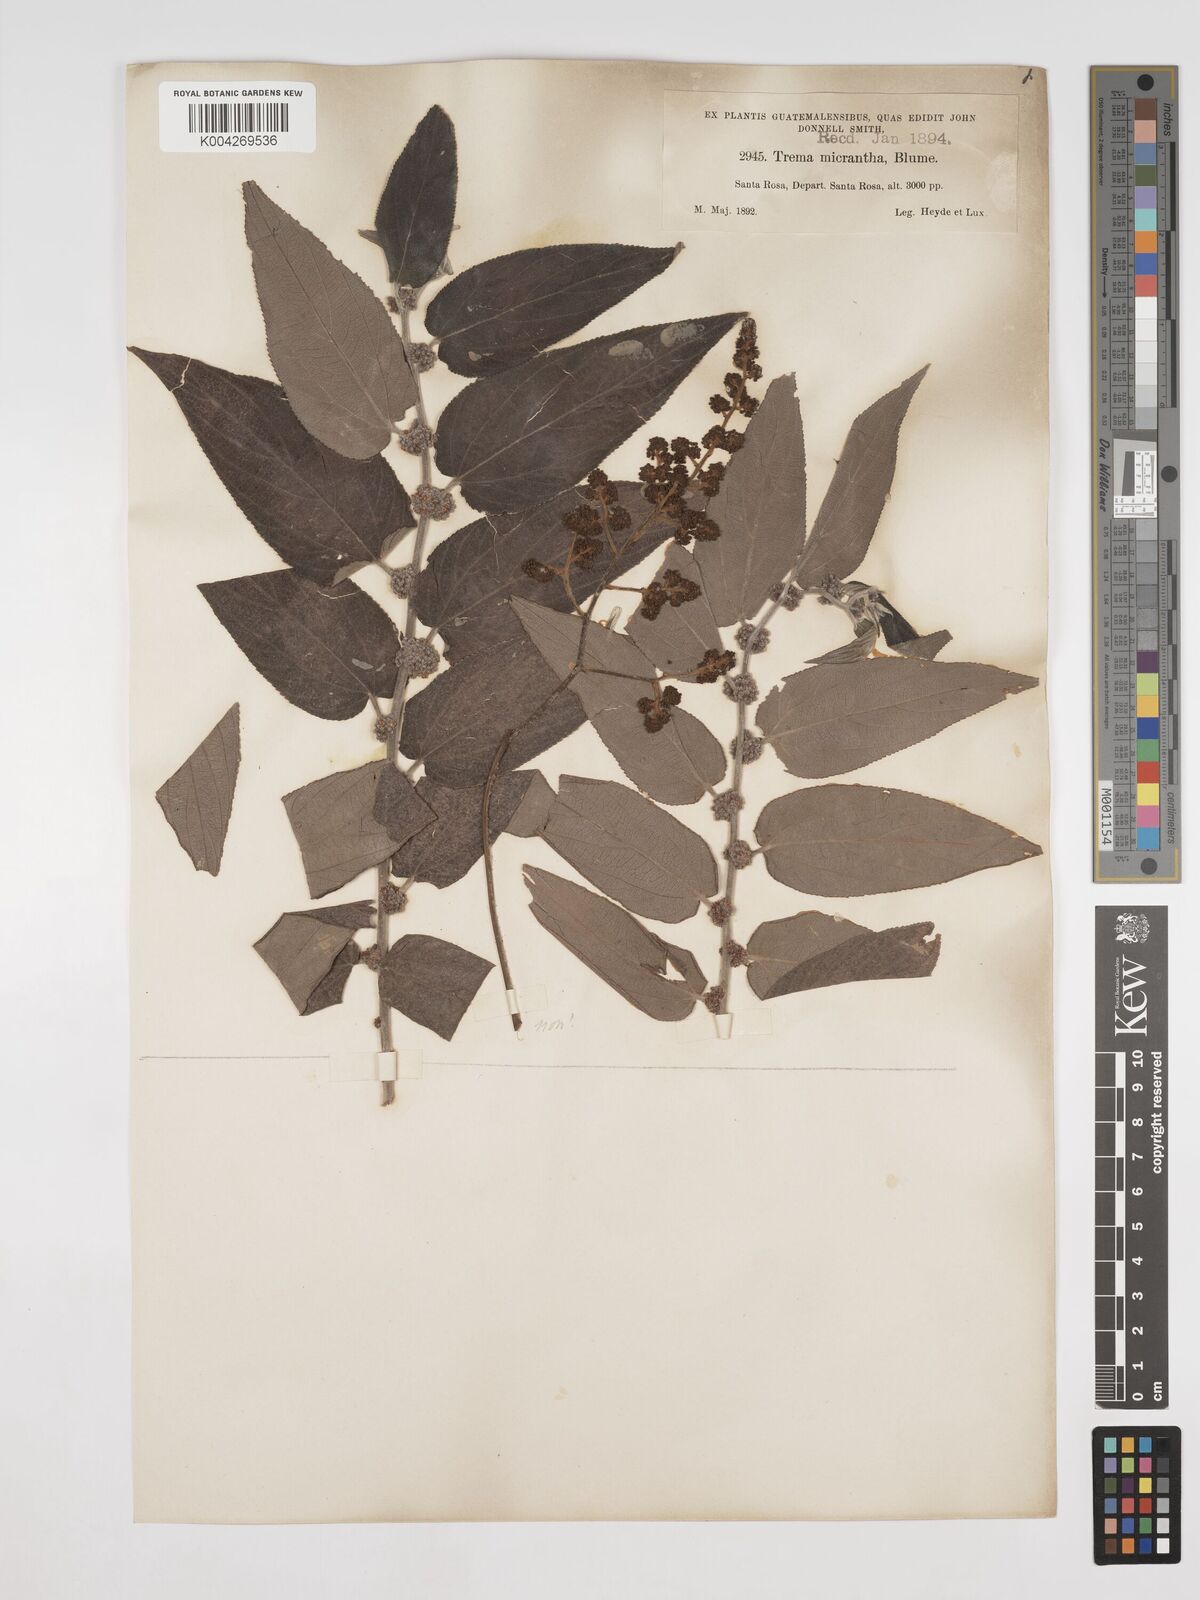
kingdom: Plantae
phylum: Tracheophyta
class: Magnoliopsida
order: Rosales
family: Cannabaceae
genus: Trema
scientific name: Trema micranthum
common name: Jamaican nettletree
